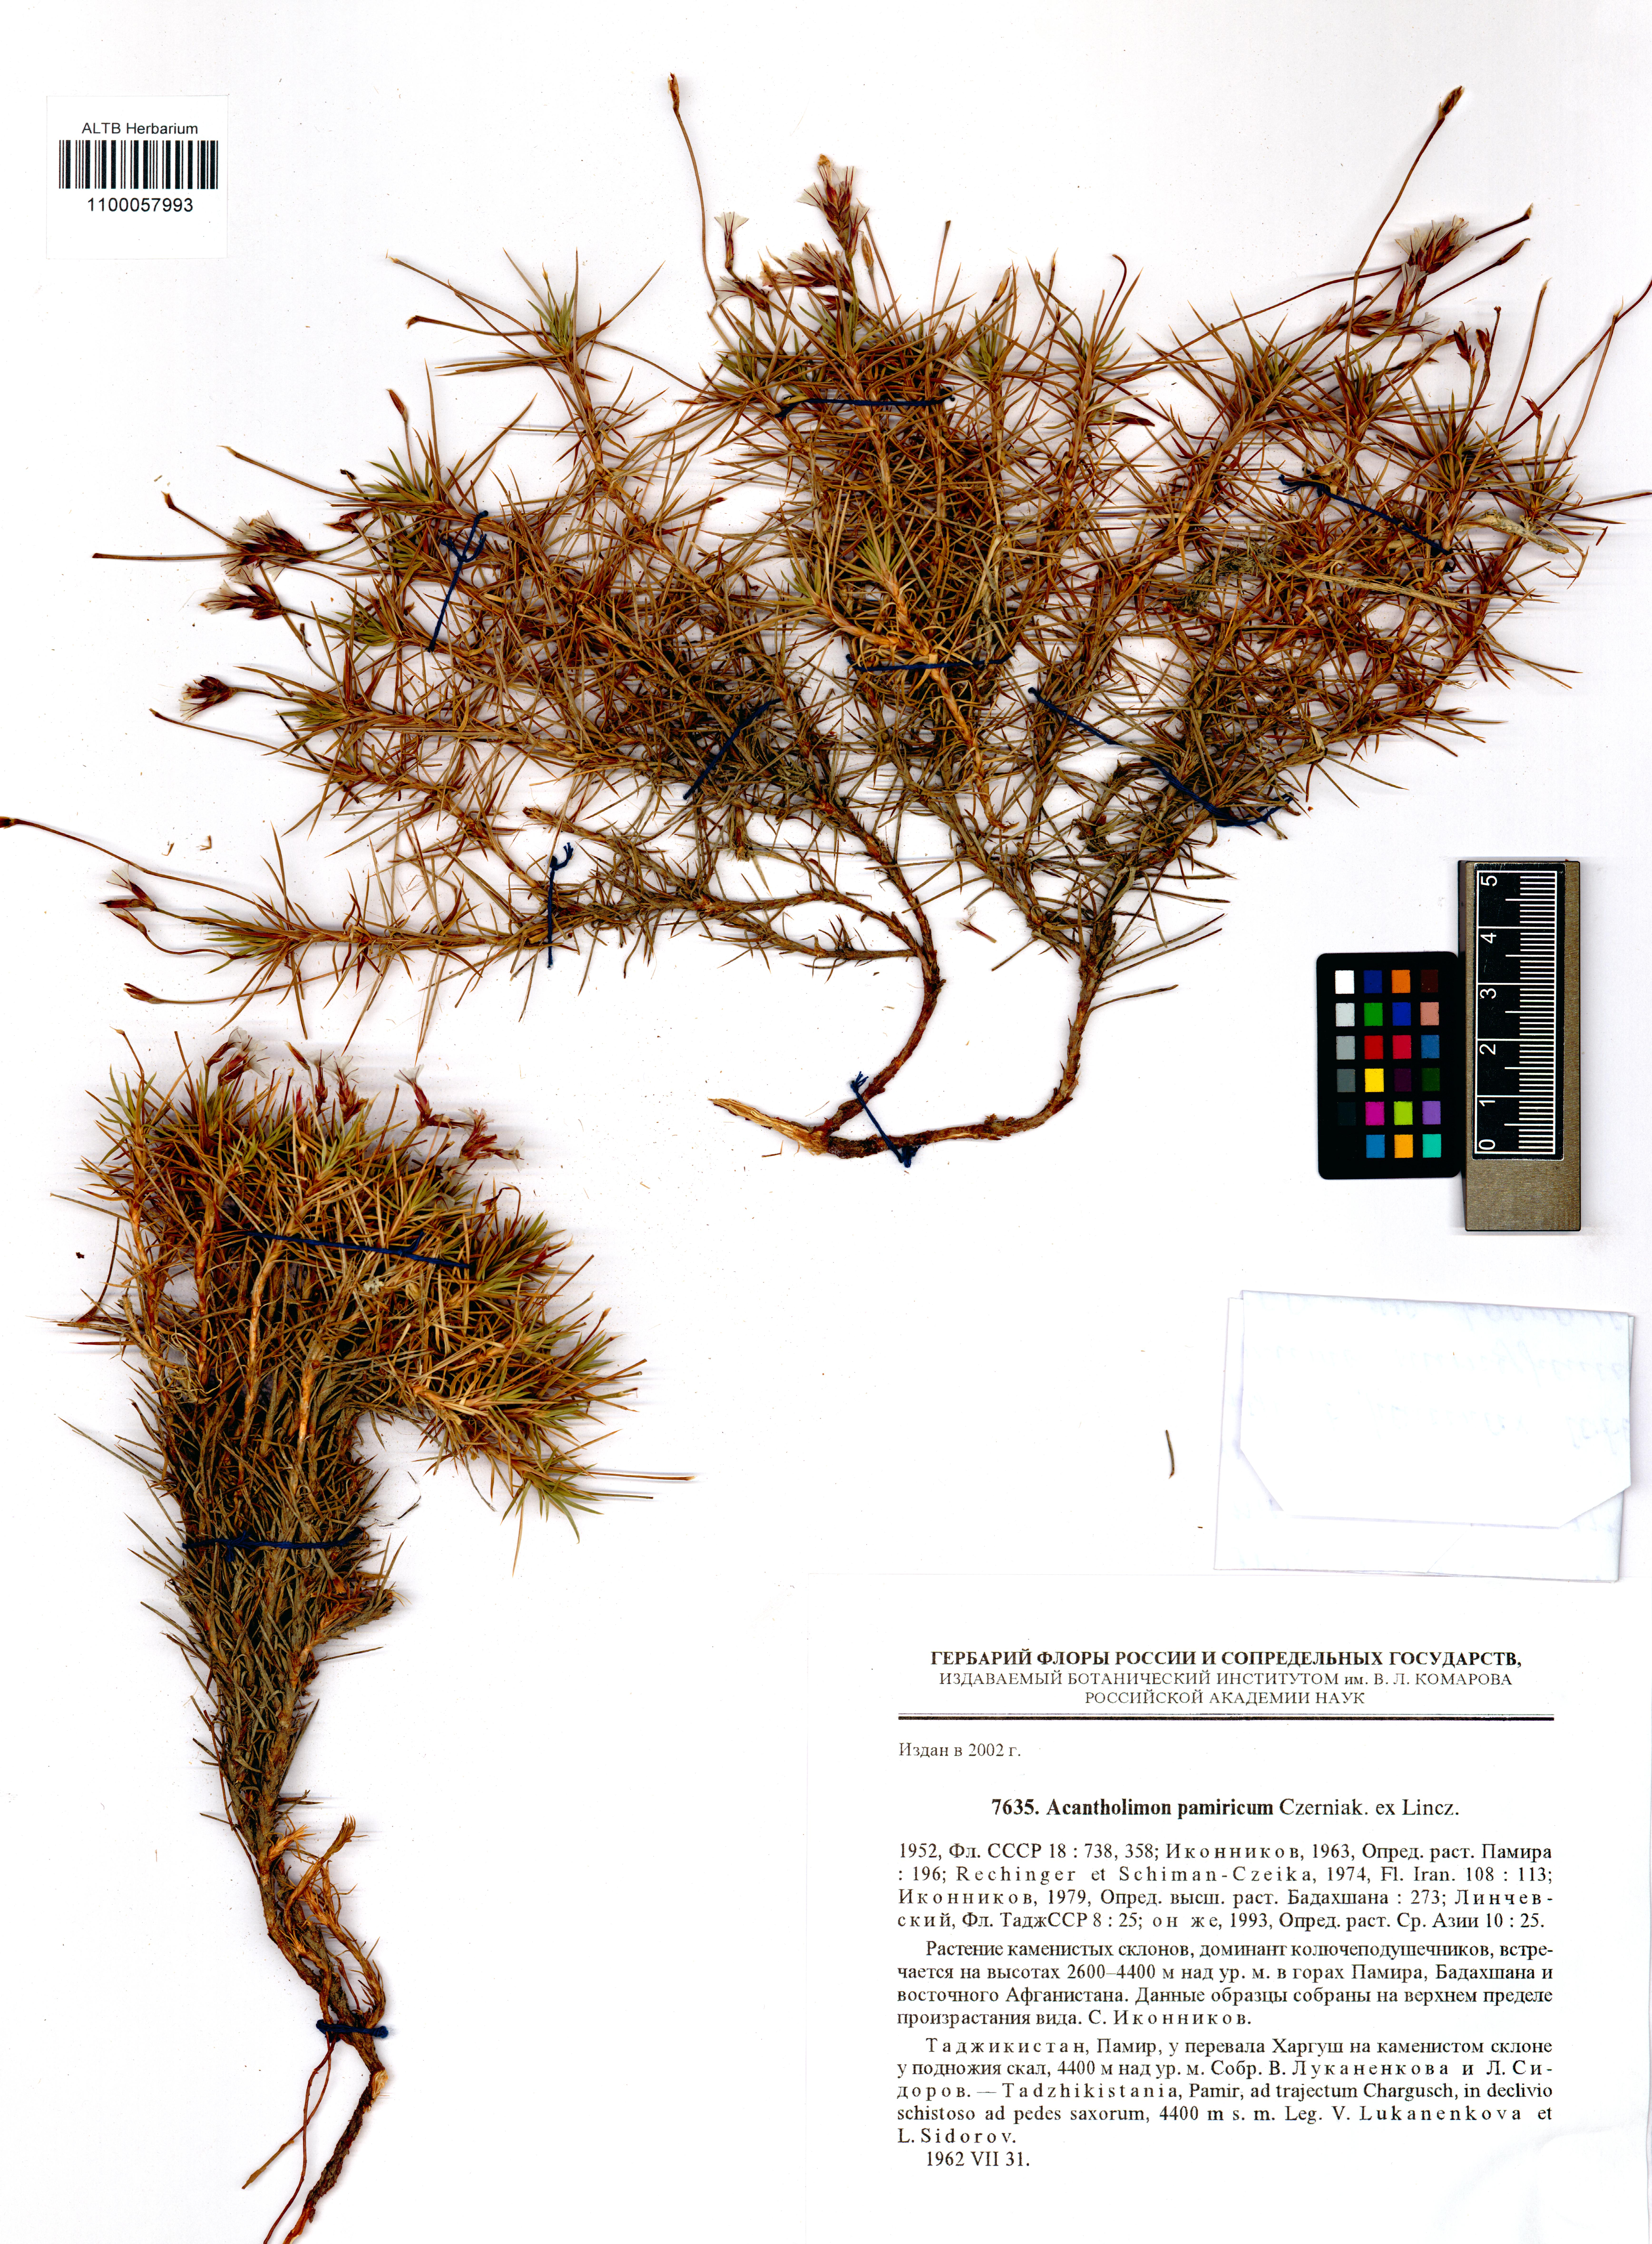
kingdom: Plantae
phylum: Tracheophyta
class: Magnoliopsida
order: Caryophyllales
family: Plumbaginaceae
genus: Acantholimon
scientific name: Acantholimon pamiricum
